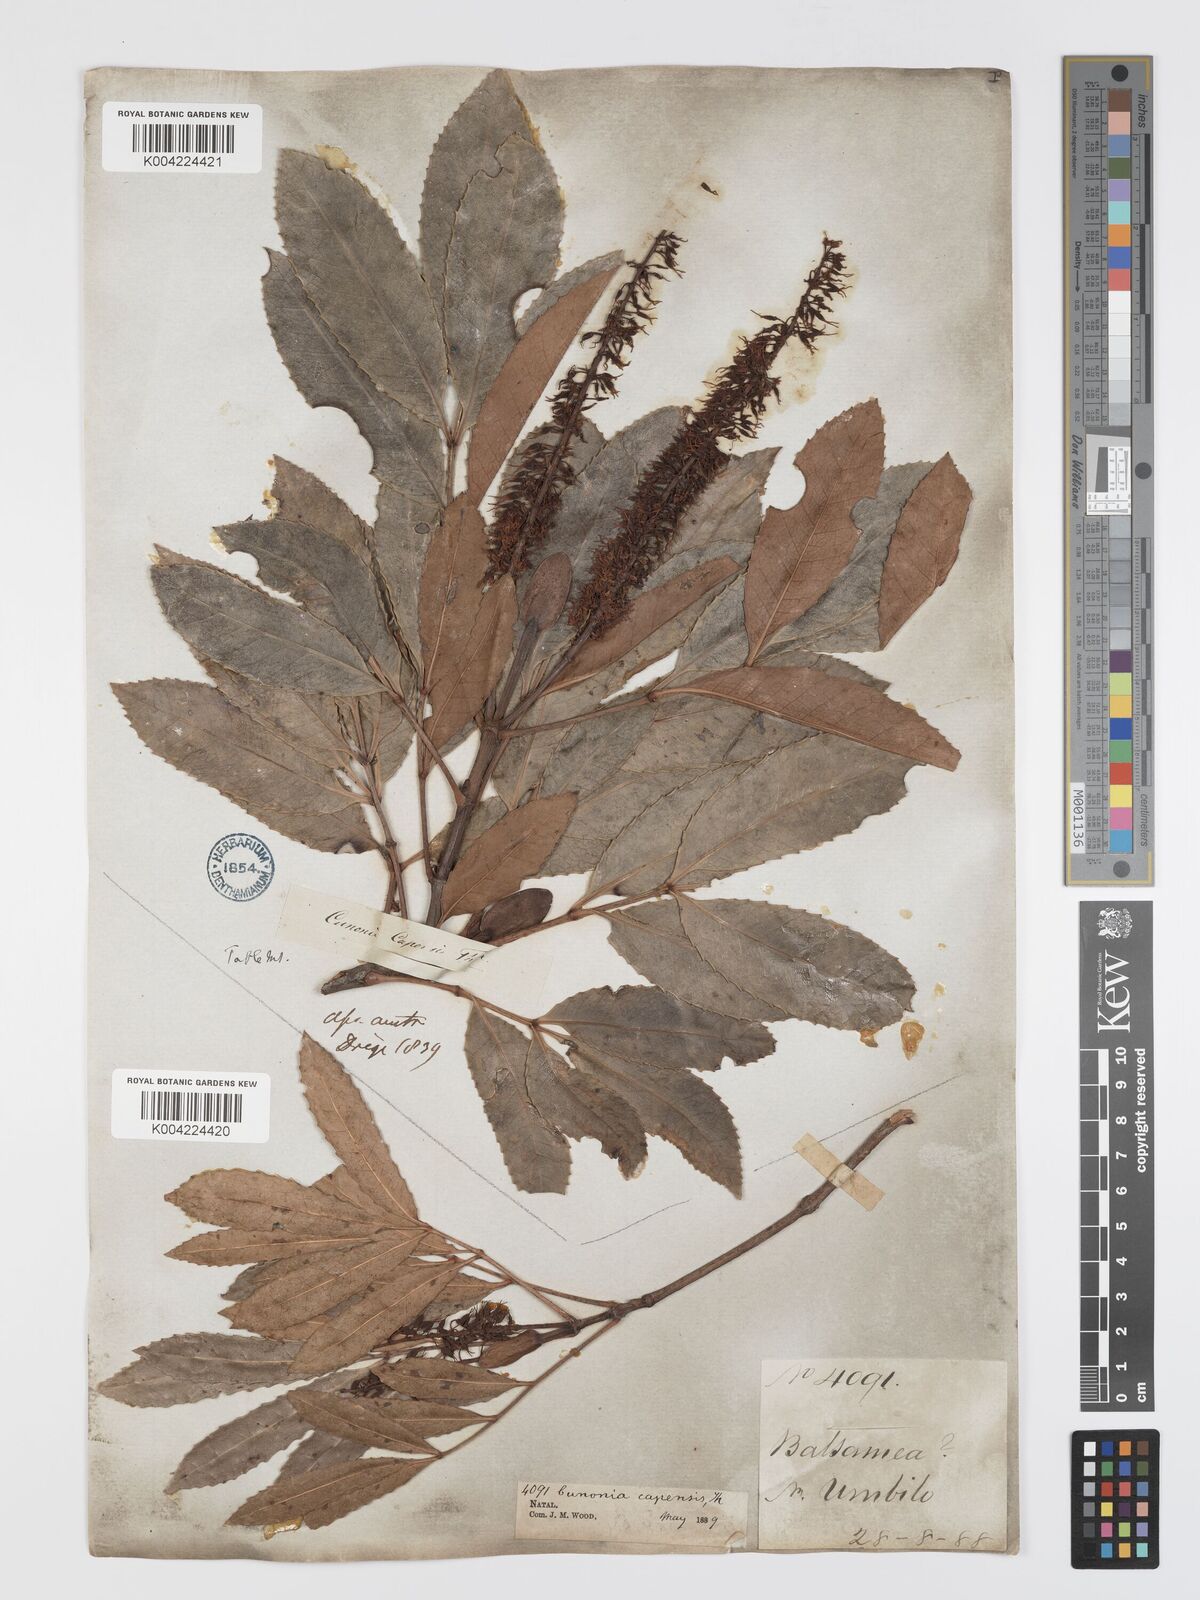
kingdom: Plantae
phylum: Tracheophyta
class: Magnoliopsida
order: Oxalidales
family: Cunoniaceae
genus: Cunonia
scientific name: Cunonia capensis
